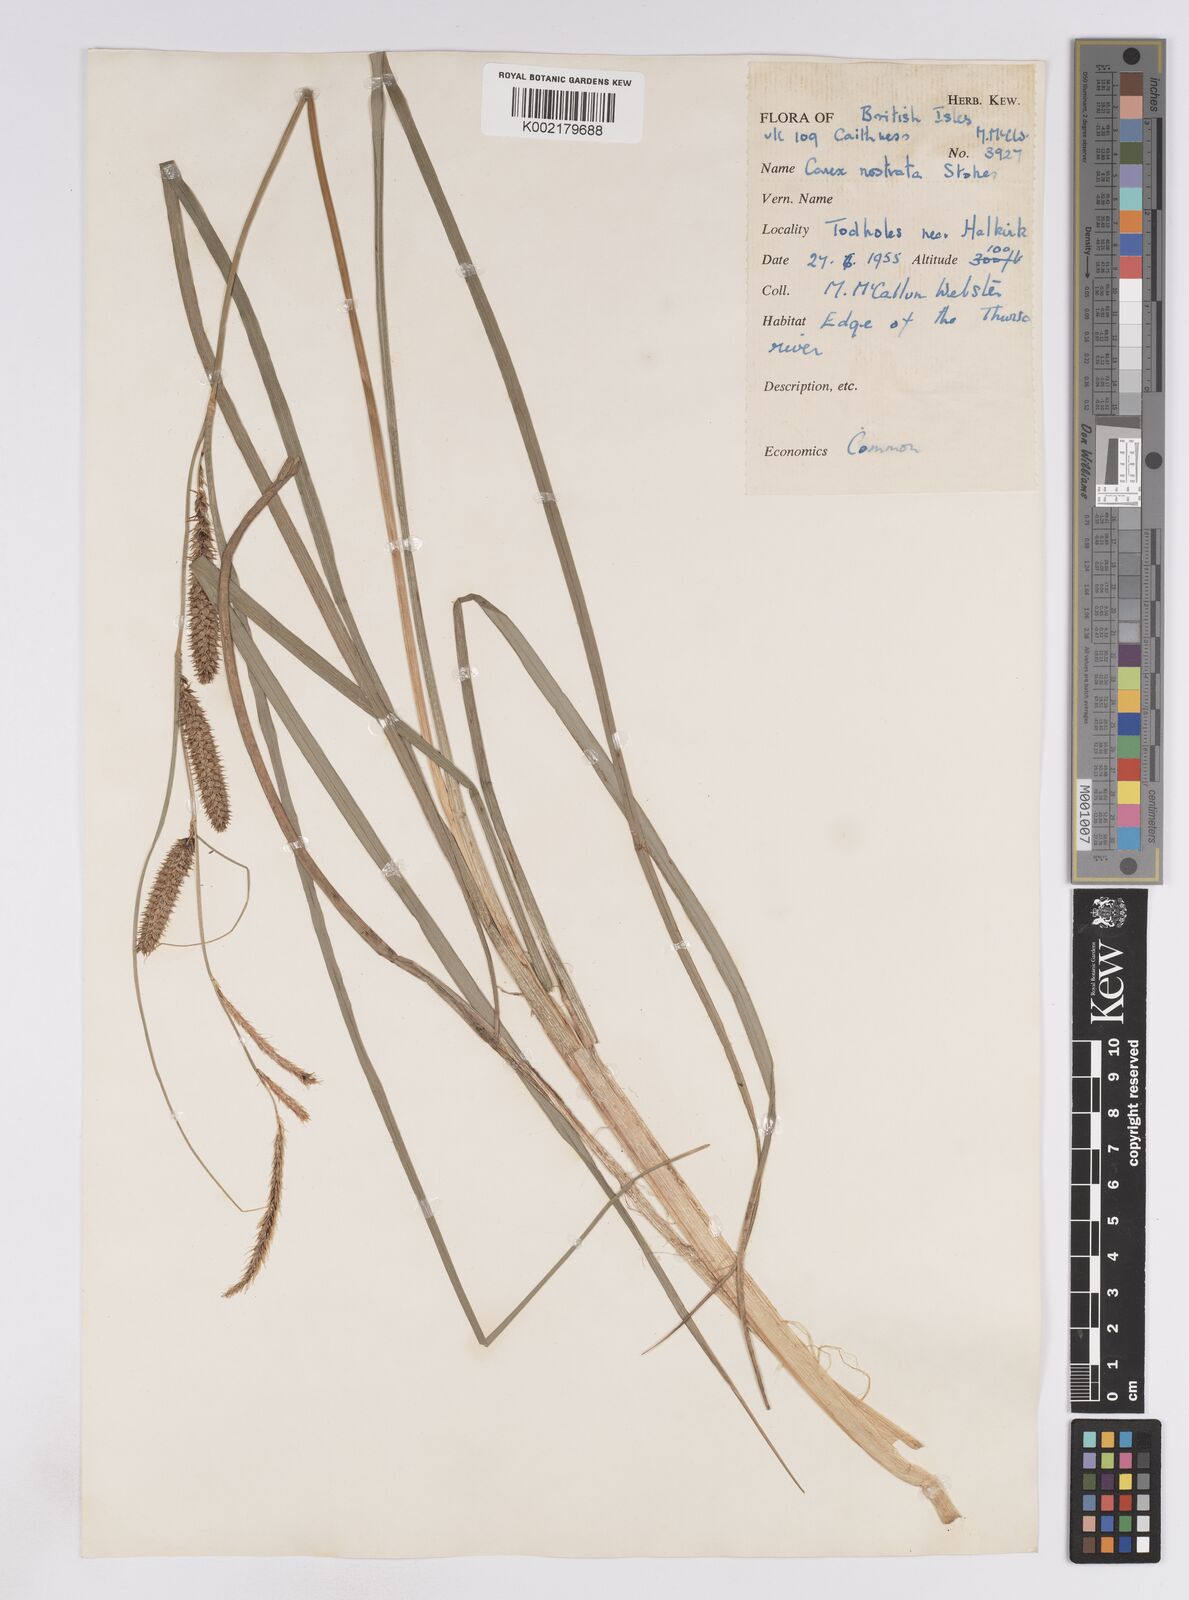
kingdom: Plantae
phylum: Tracheophyta
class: Liliopsida
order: Poales
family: Cyperaceae
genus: Carex
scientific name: Carex rostrata
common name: Bottle sedge
